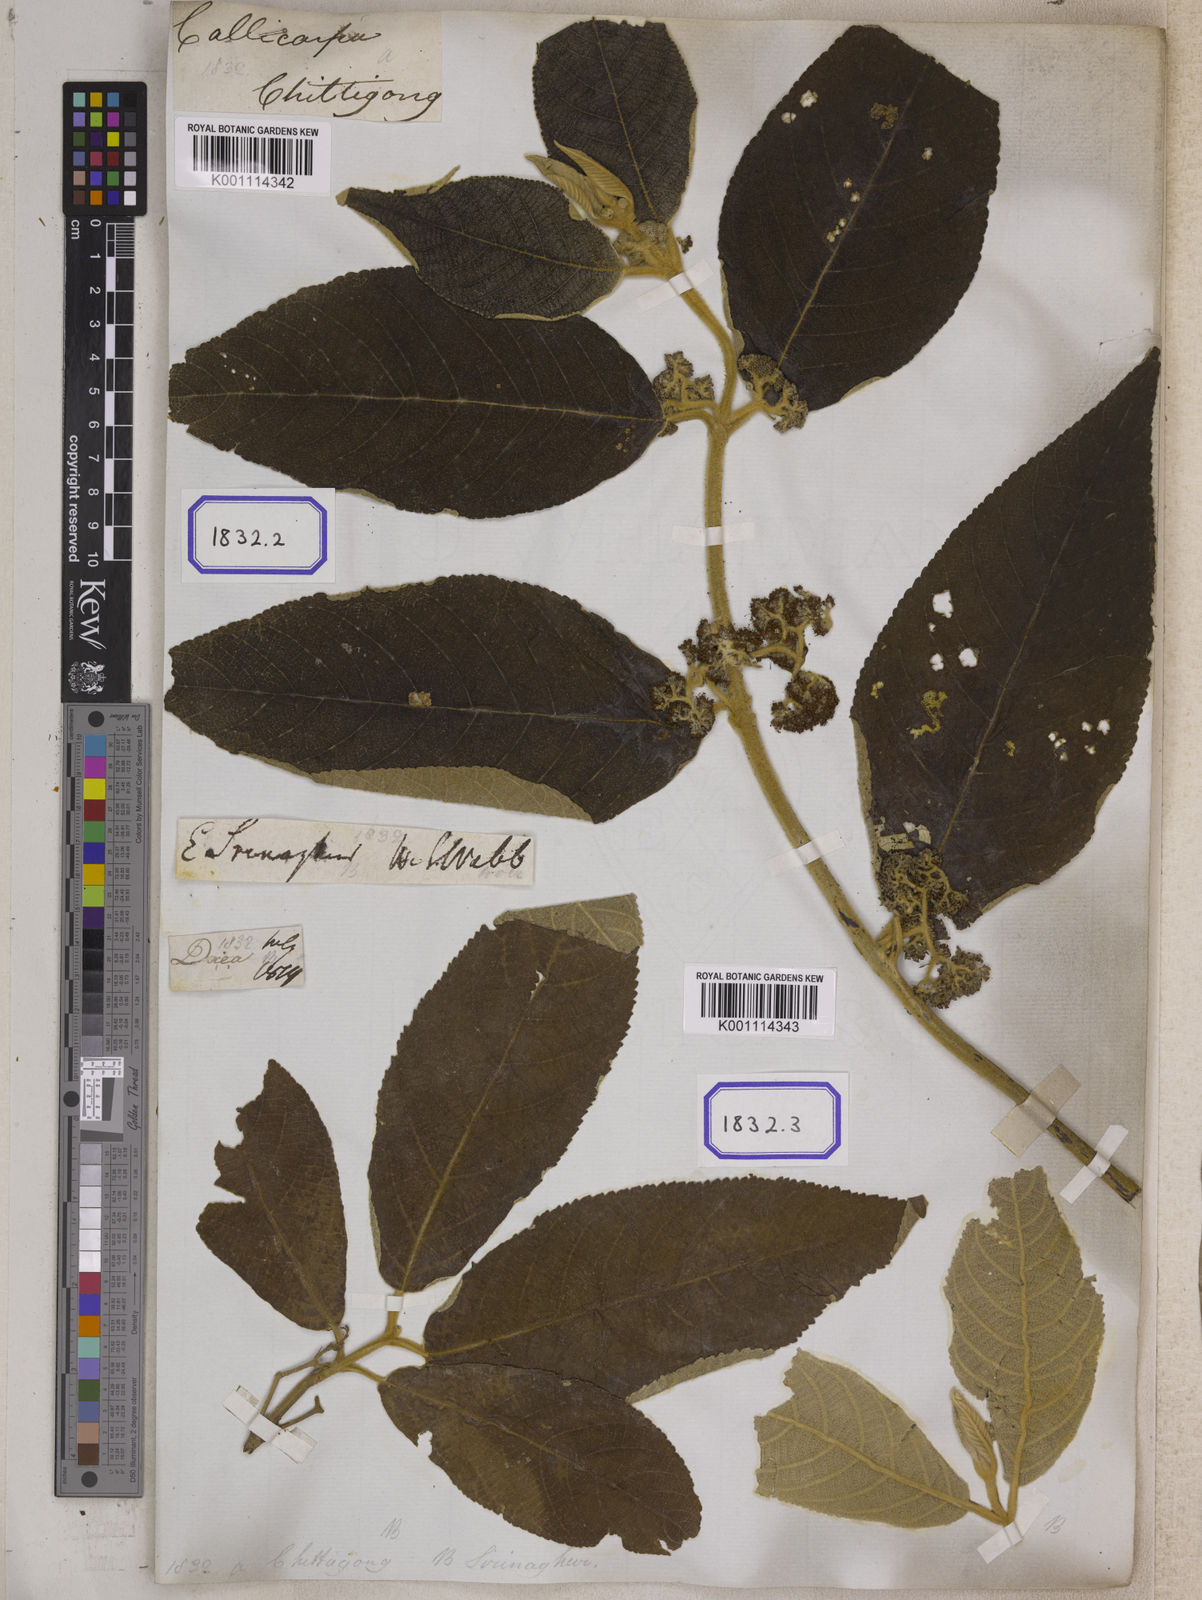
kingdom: Plantae
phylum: Tracheophyta
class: Magnoliopsida
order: Lamiales
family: Lamiaceae
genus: Callicarpa
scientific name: Callicarpa macrophylla
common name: Urn-fruit beauty-berry
